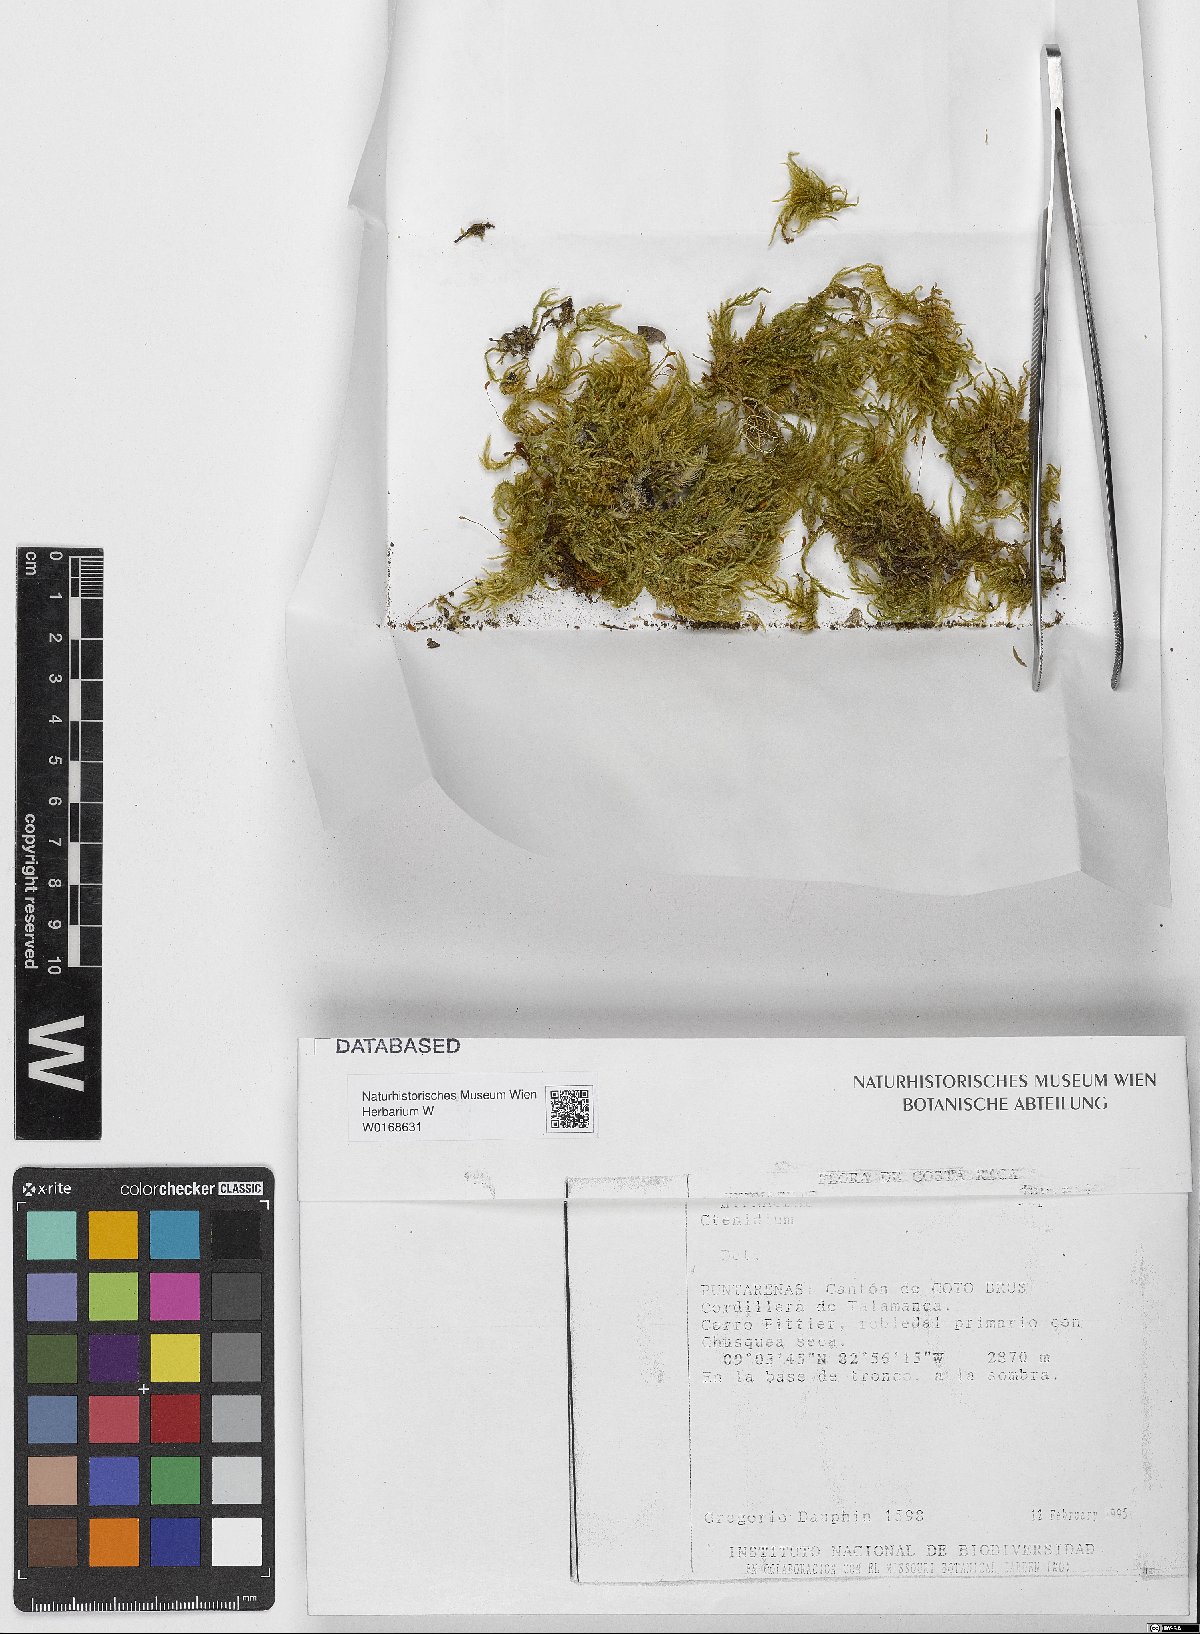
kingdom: Plantae
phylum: Bryophyta
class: Bryopsida
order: Hypnales
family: Myuriaceae
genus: Ctenidium
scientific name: Ctenidium
